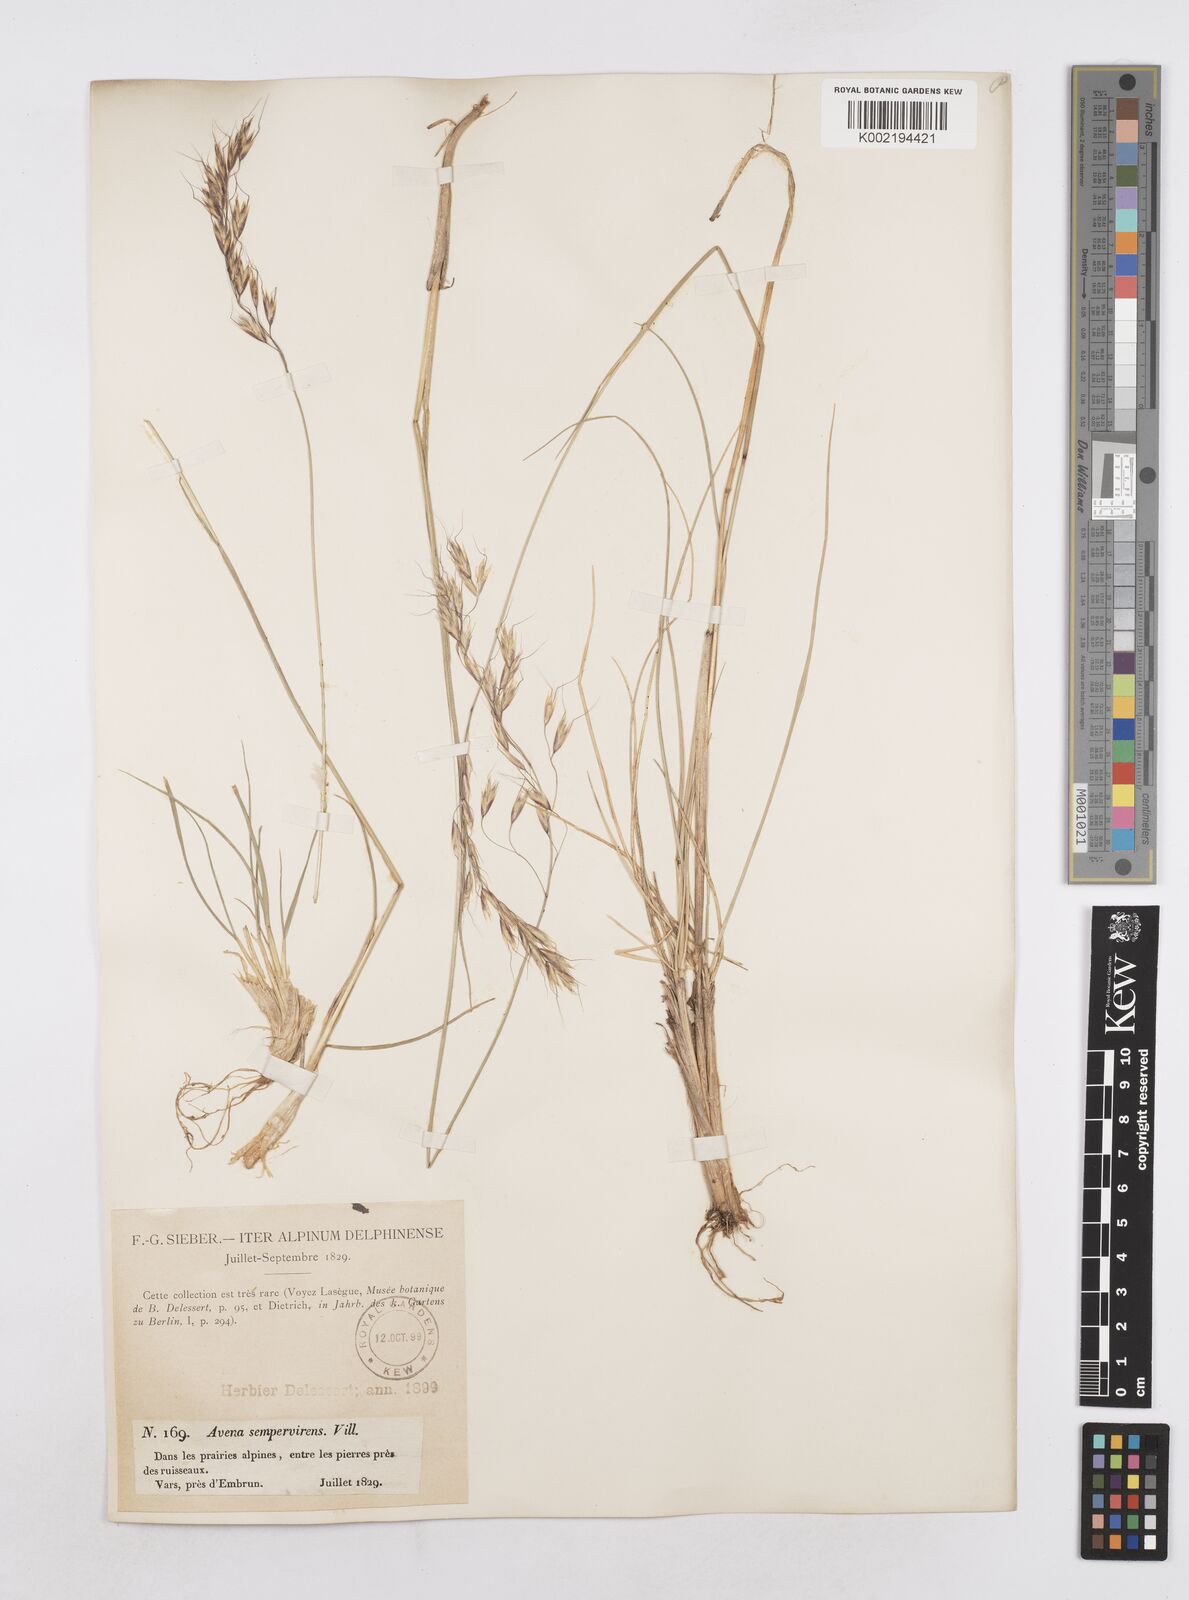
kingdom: Plantae
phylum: Tracheophyta
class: Liliopsida
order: Poales
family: Poaceae
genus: Helictotrichon
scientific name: Helictotrichon sempervirens
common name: Blue oat-grass
